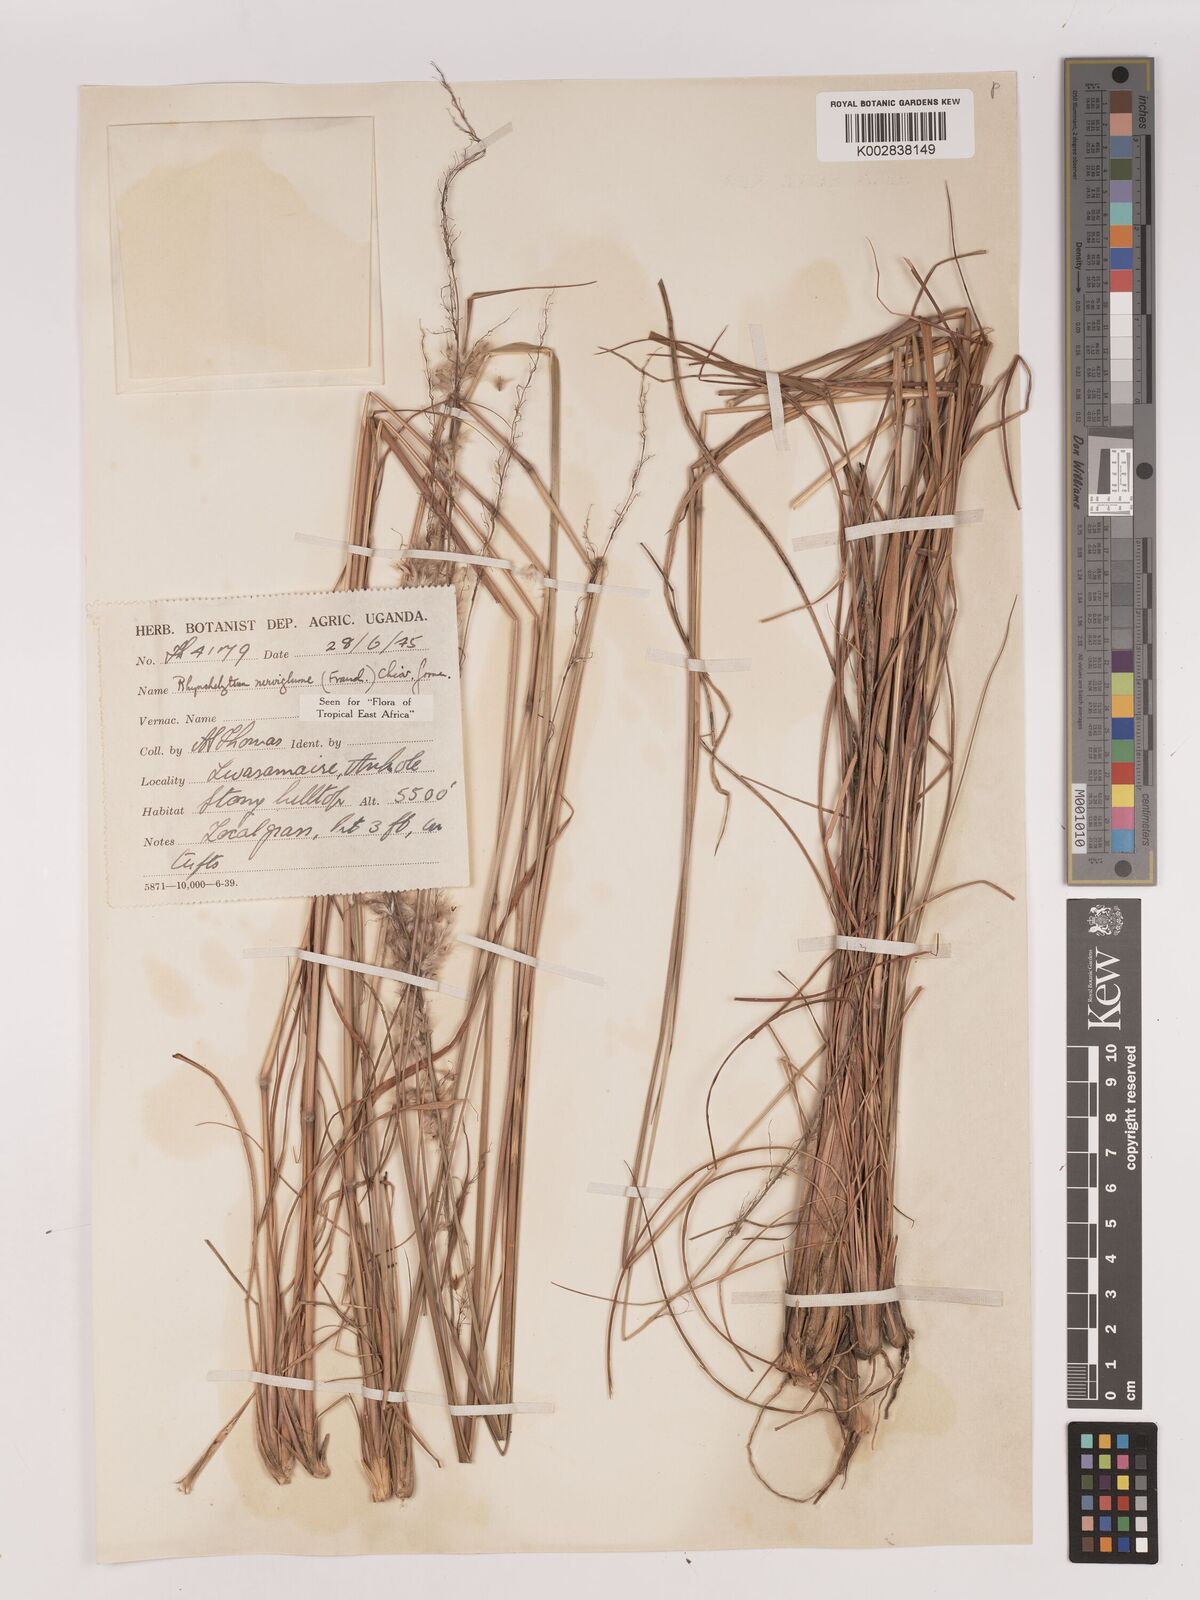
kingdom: Plantae
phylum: Tracheophyta
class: Liliopsida
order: Poales
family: Poaceae
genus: Melinis
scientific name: Melinis nerviglumis
